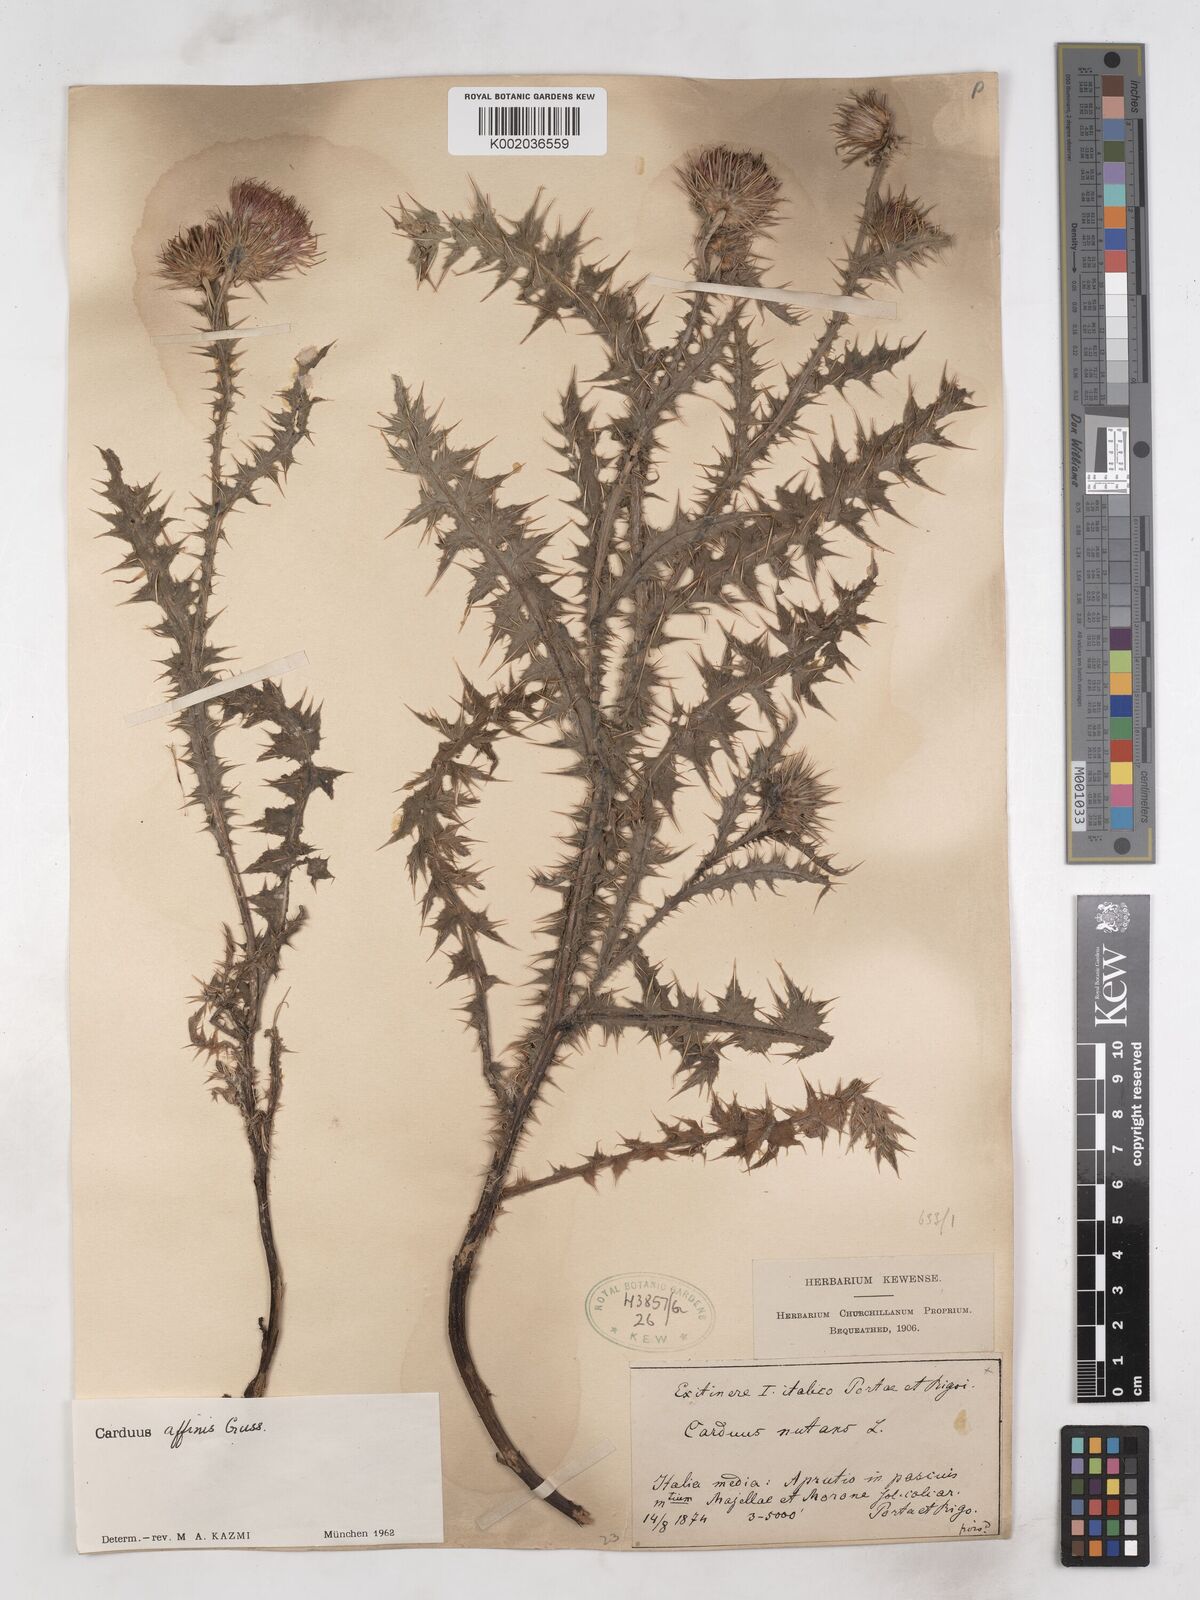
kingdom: Plantae
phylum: Tracheophyta
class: Magnoliopsida
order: Asterales
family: Asteraceae
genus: Carduus
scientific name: Carduus affinis
